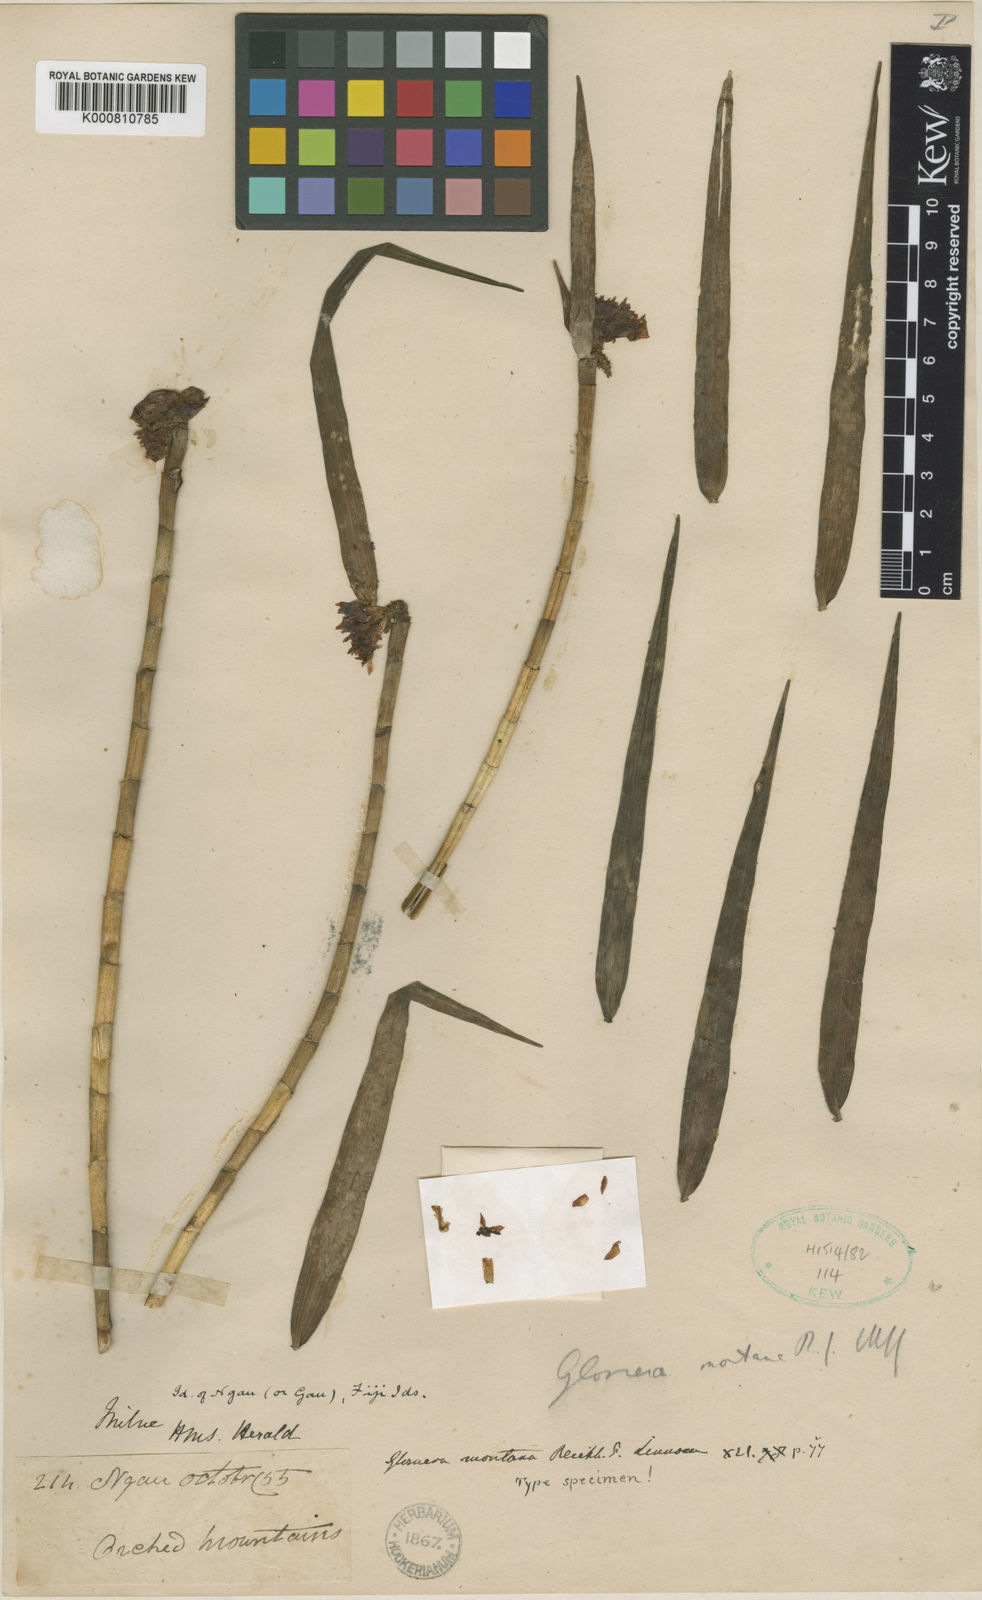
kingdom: Plantae
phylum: Tracheophyta
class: Liliopsida
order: Asparagales
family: Orchidaceae
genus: Glomera
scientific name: Glomera montana
